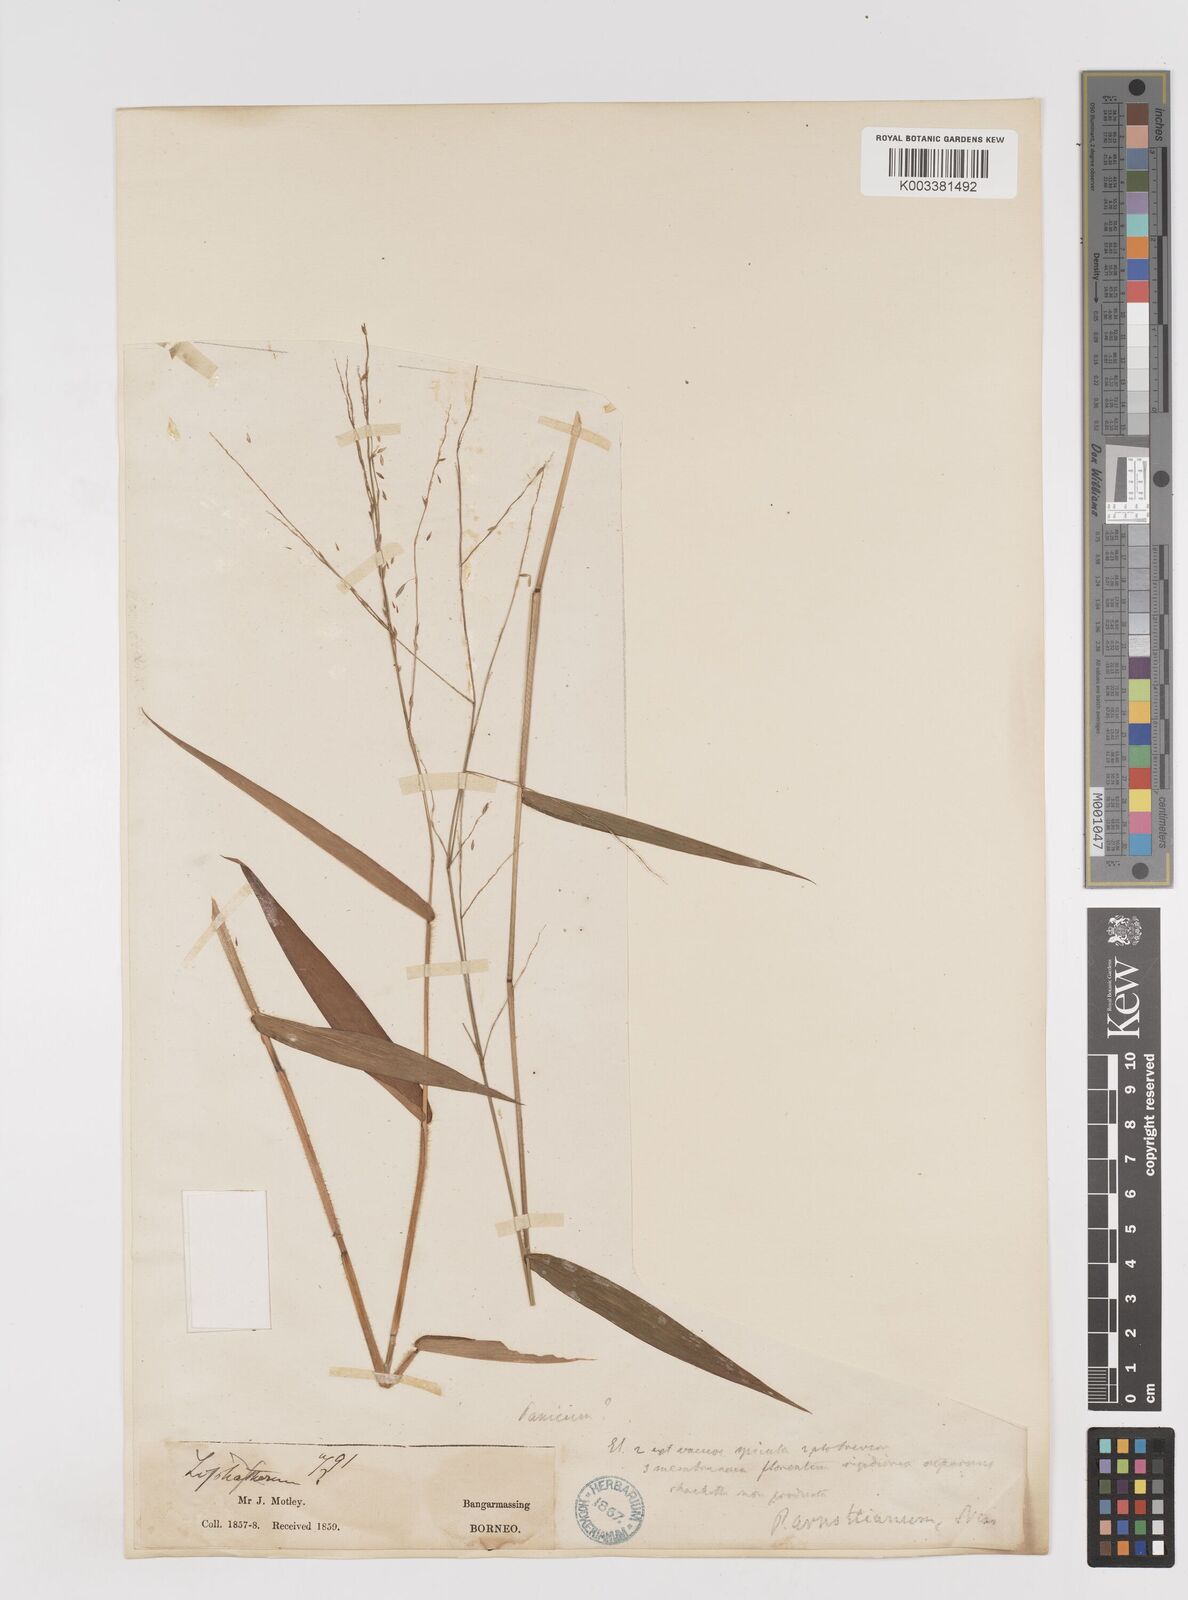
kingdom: Plantae
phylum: Tracheophyta
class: Liliopsida
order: Poales
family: Poaceae
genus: Ottochloa
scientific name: Ottochloa nodosa
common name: Slender-panic grass
